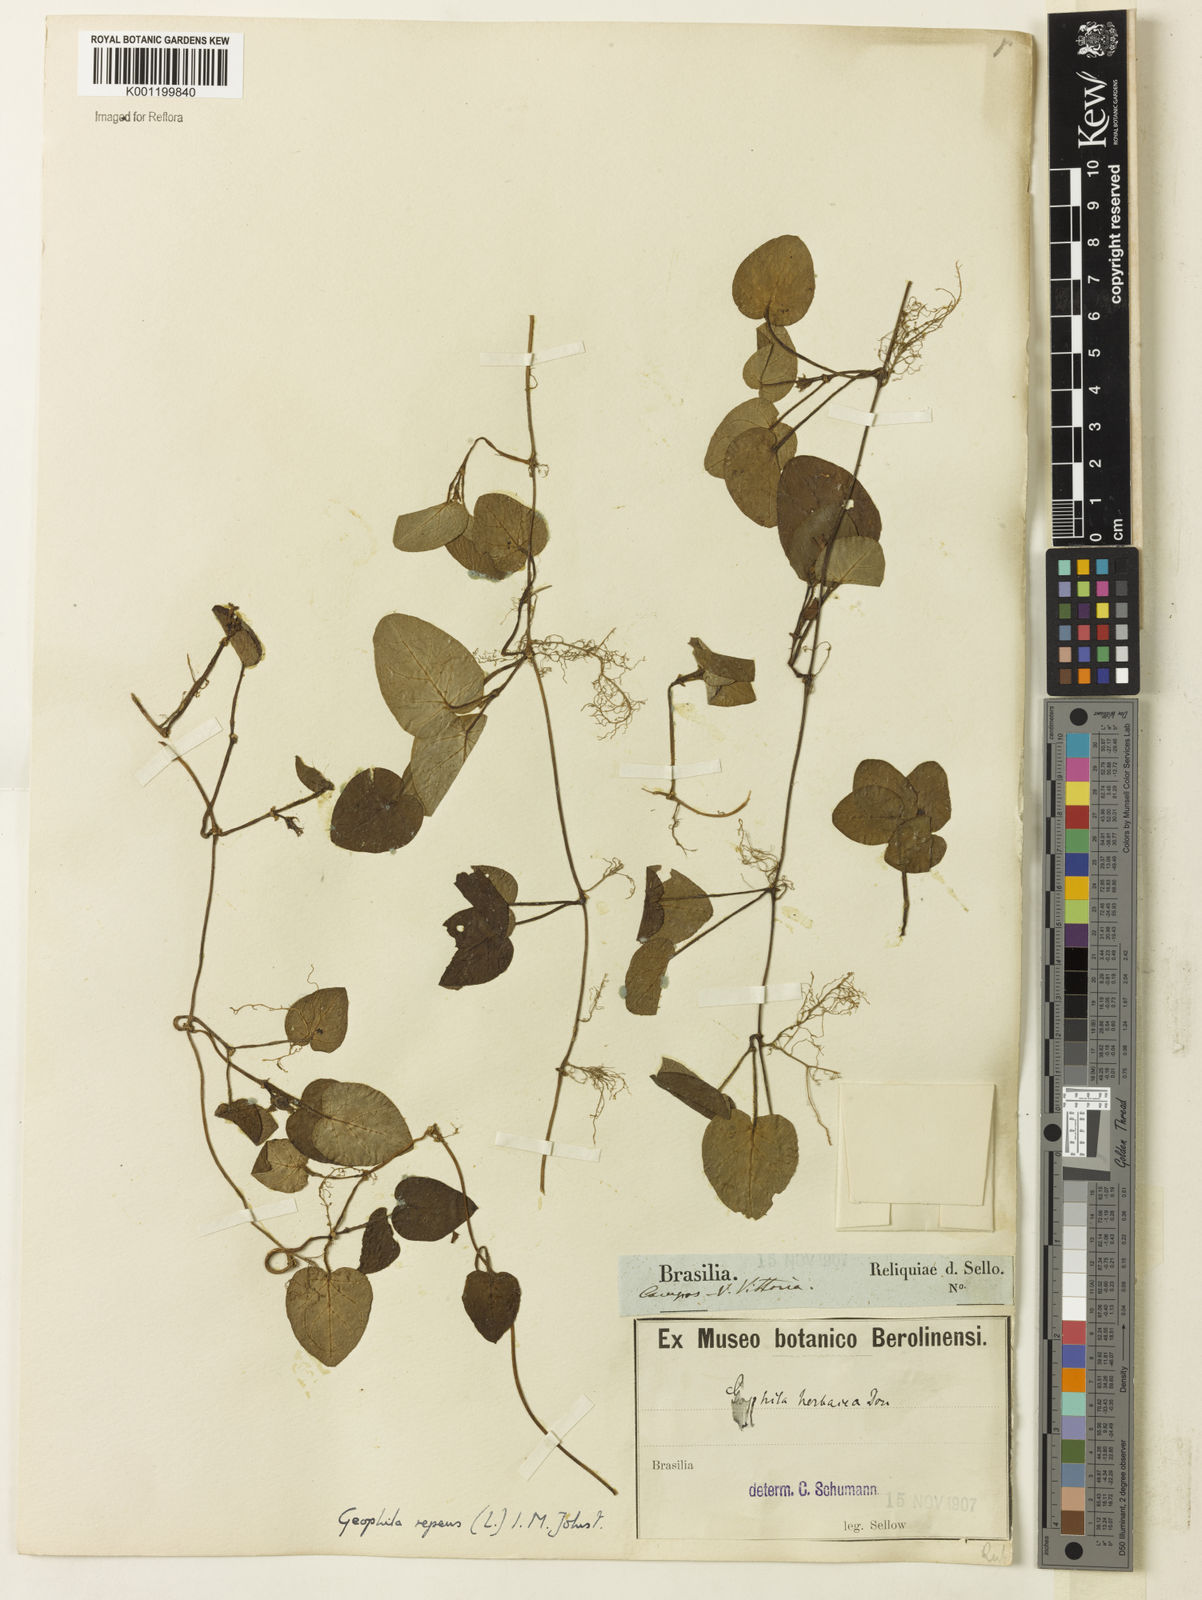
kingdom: Plantae
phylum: Tracheophyta
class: Magnoliopsida
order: Gentianales
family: Rubiaceae
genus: Geophila
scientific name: Geophila herbacea
